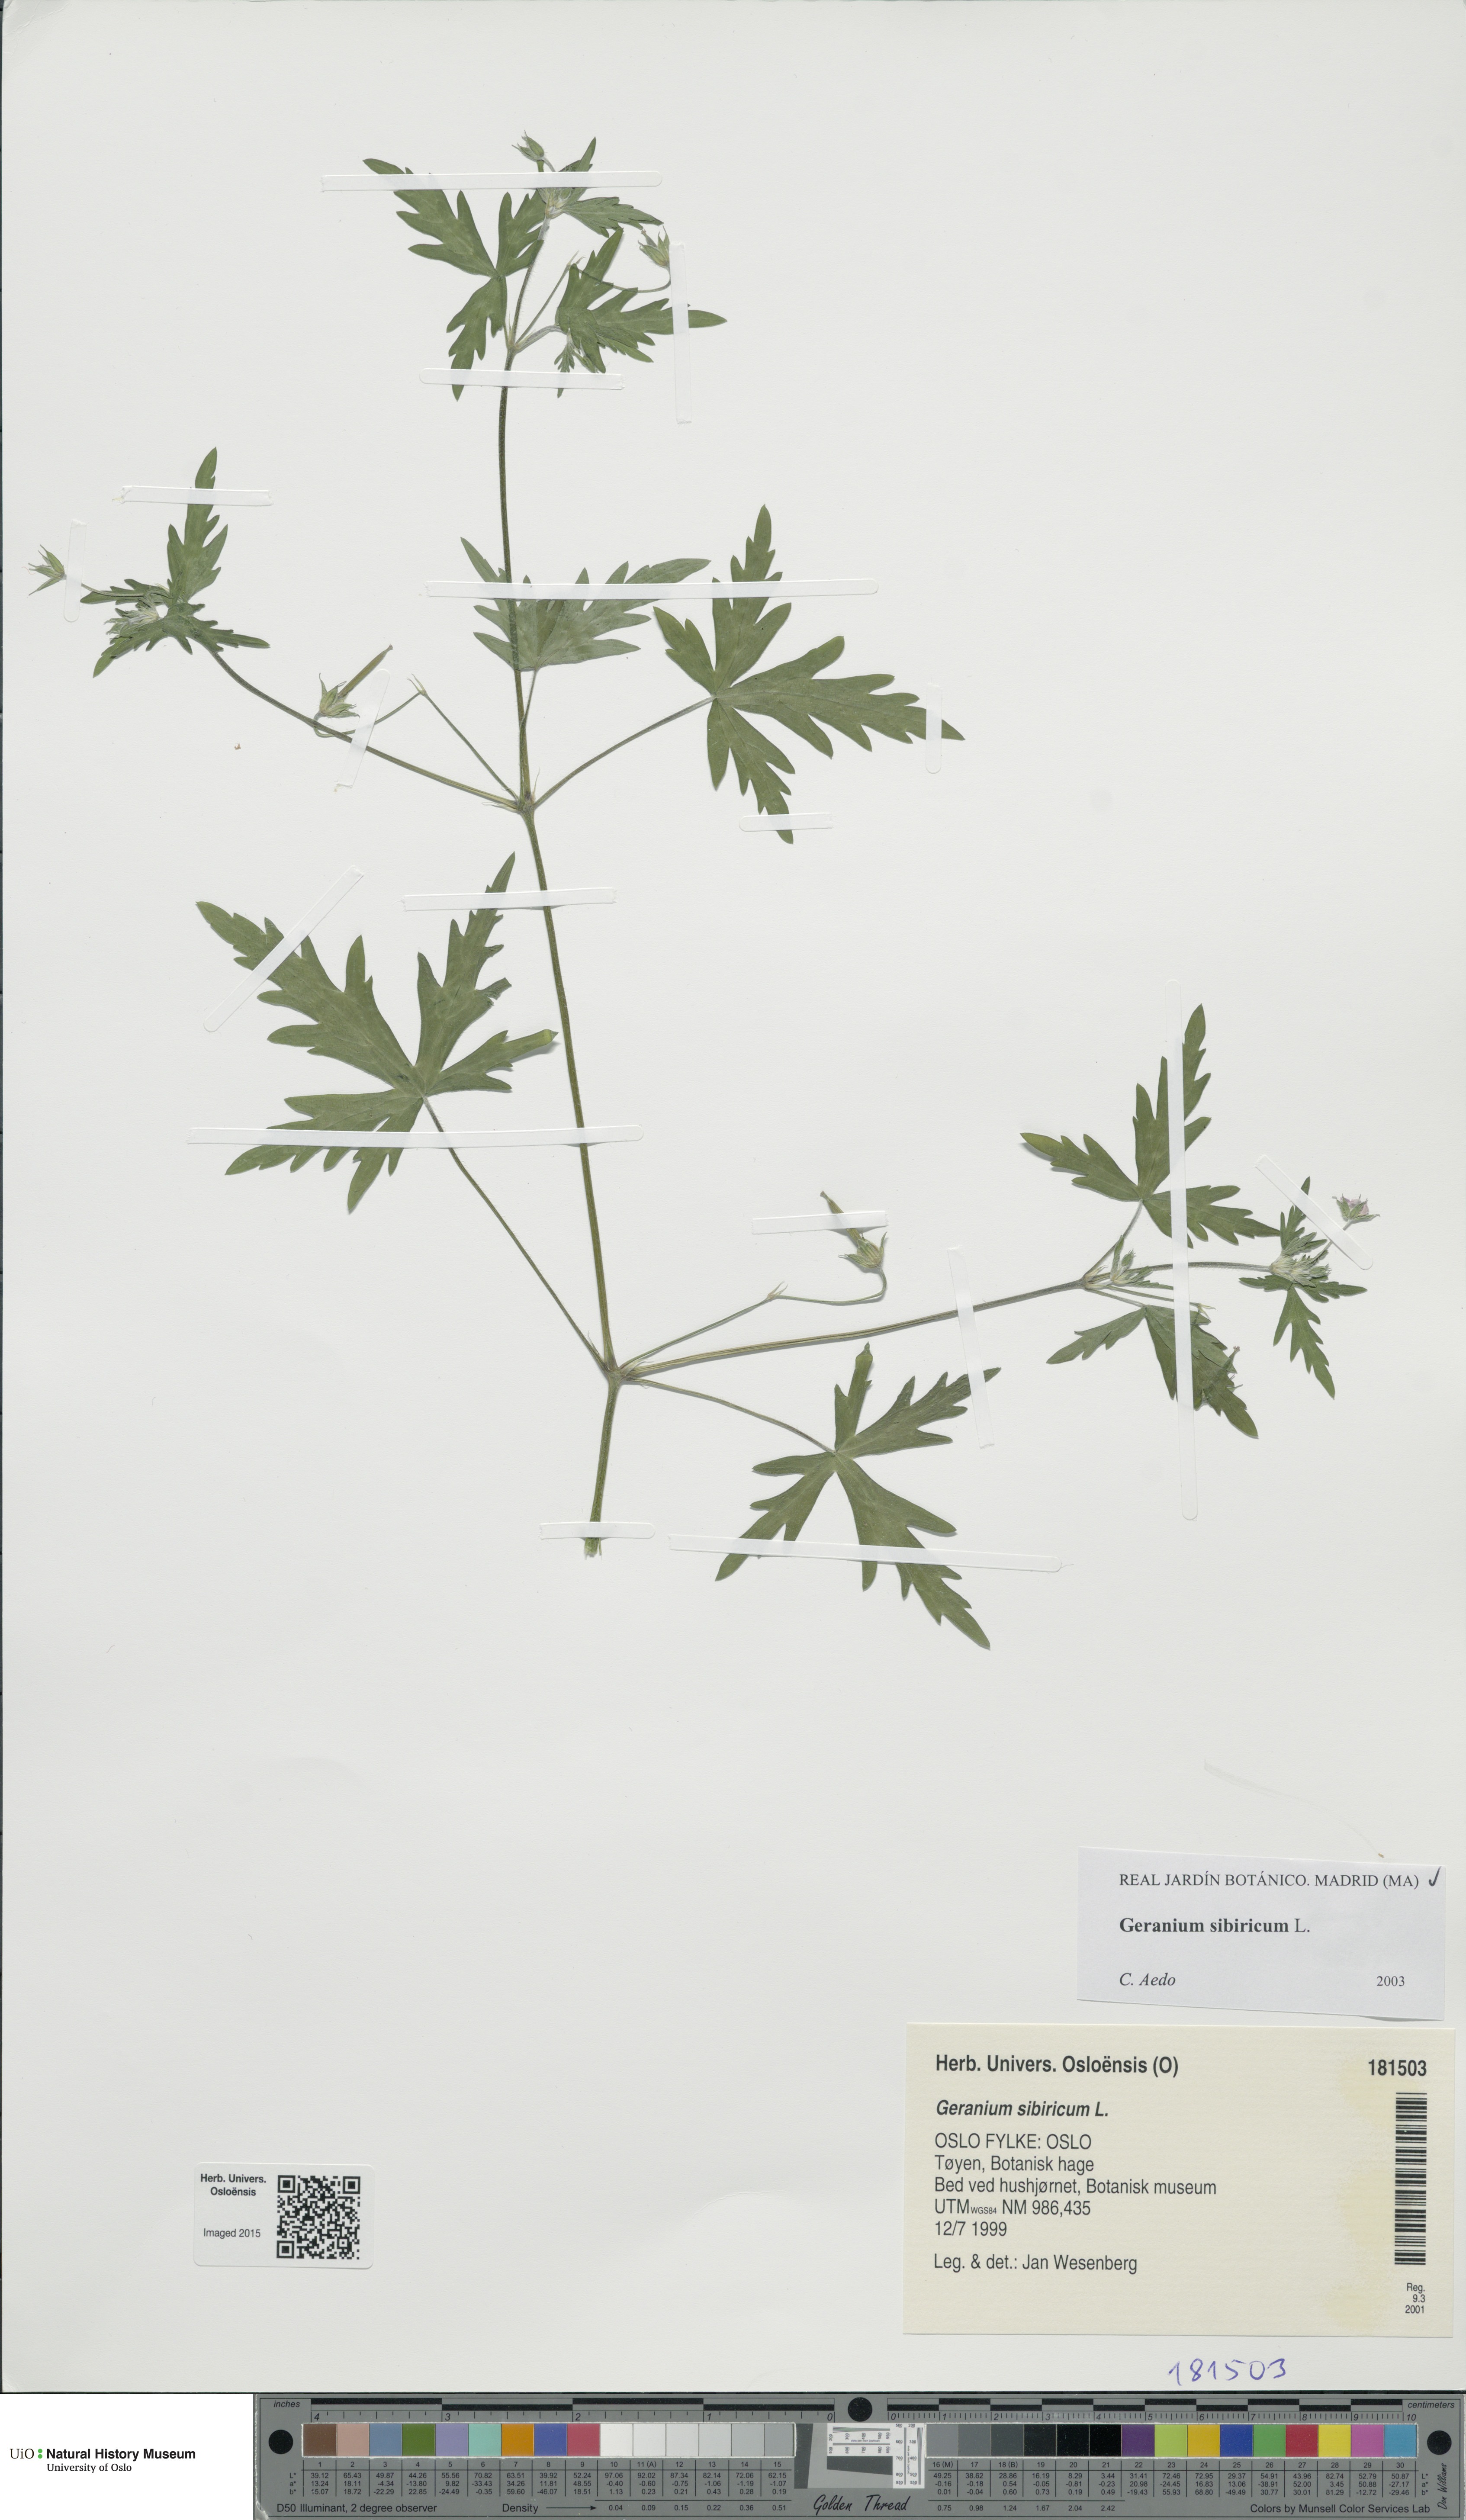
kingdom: Plantae
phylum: Tracheophyta
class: Magnoliopsida
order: Geraniales
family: Geraniaceae
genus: Geranium
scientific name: Geranium sibiricum
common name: Siberian crane's-bill
